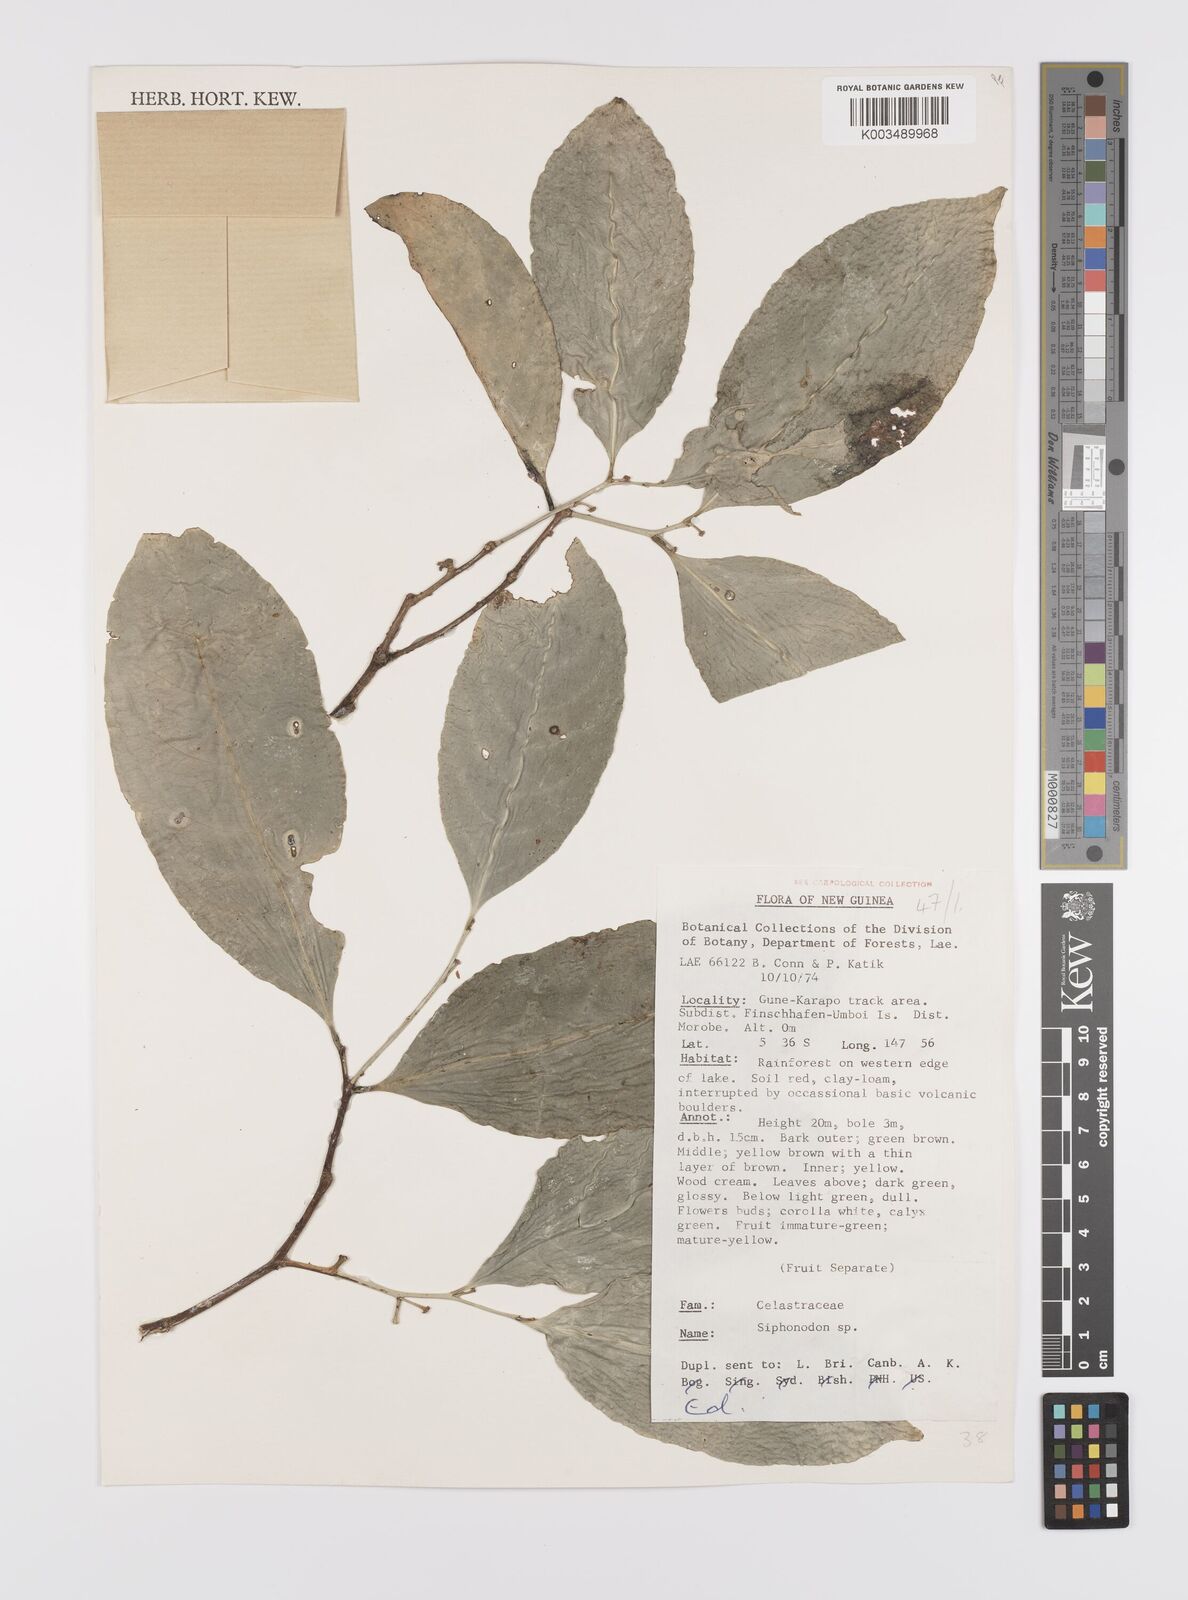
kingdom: Plantae
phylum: Tracheophyta
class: Magnoliopsida
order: Celastrales
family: Celastraceae
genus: Siphonodon
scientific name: Siphonodon
